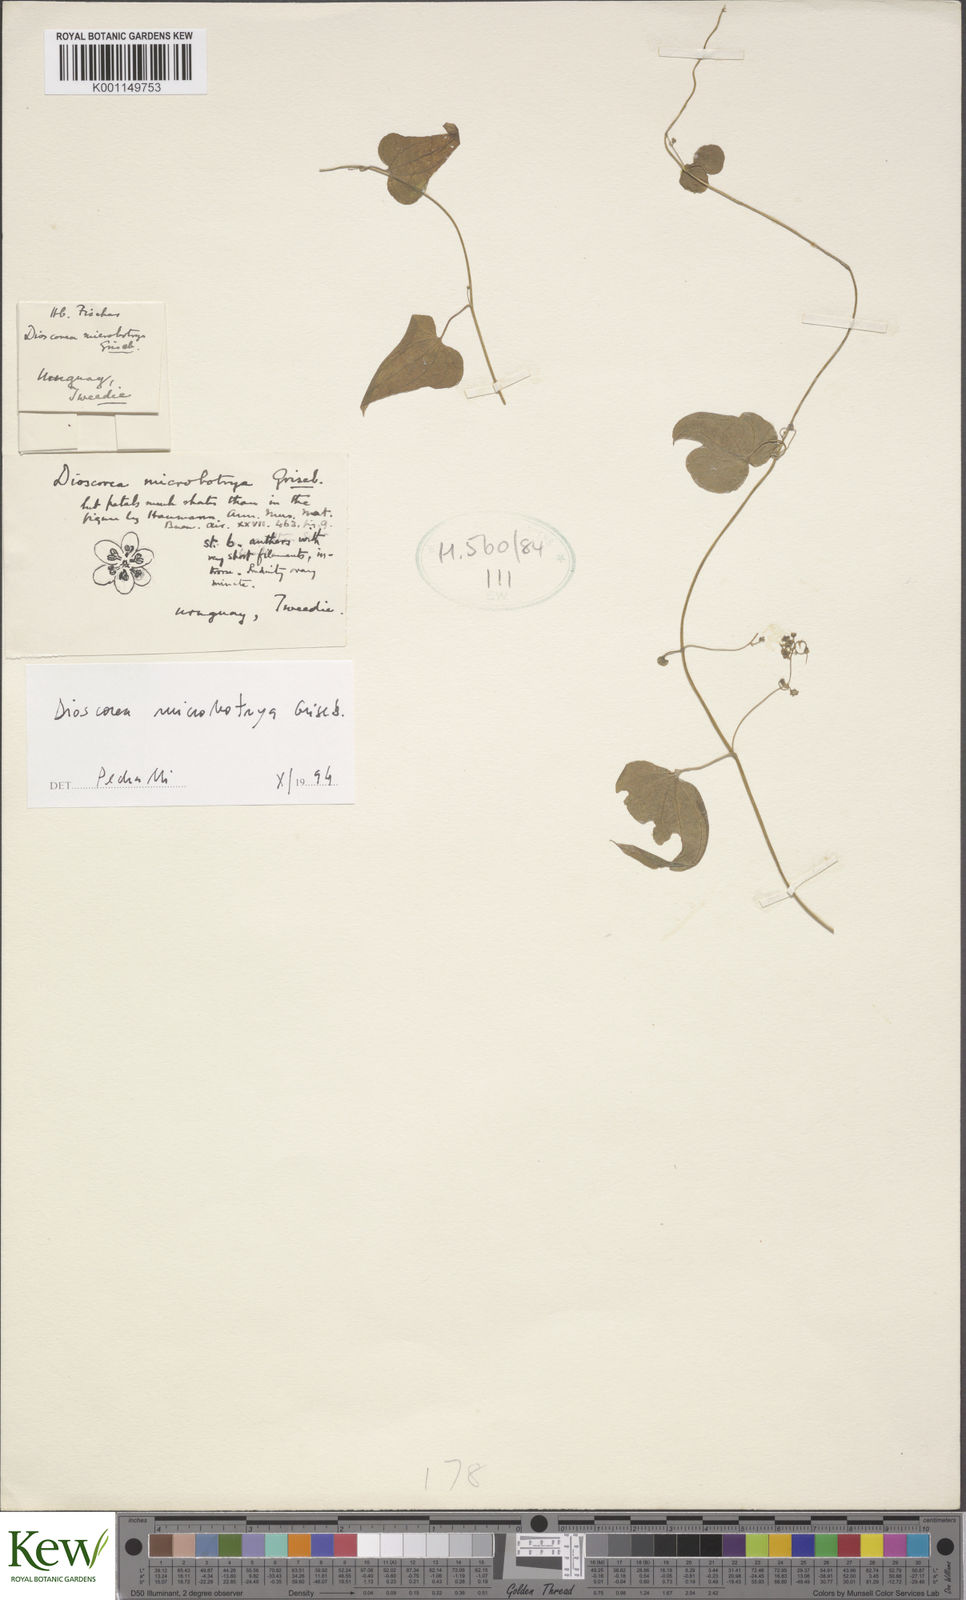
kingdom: Plantae
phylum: Tracheophyta
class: Liliopsida
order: Dioscoreales
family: Dioscoreaceae
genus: Dioscorea
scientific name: Dioscorea microbotrya
